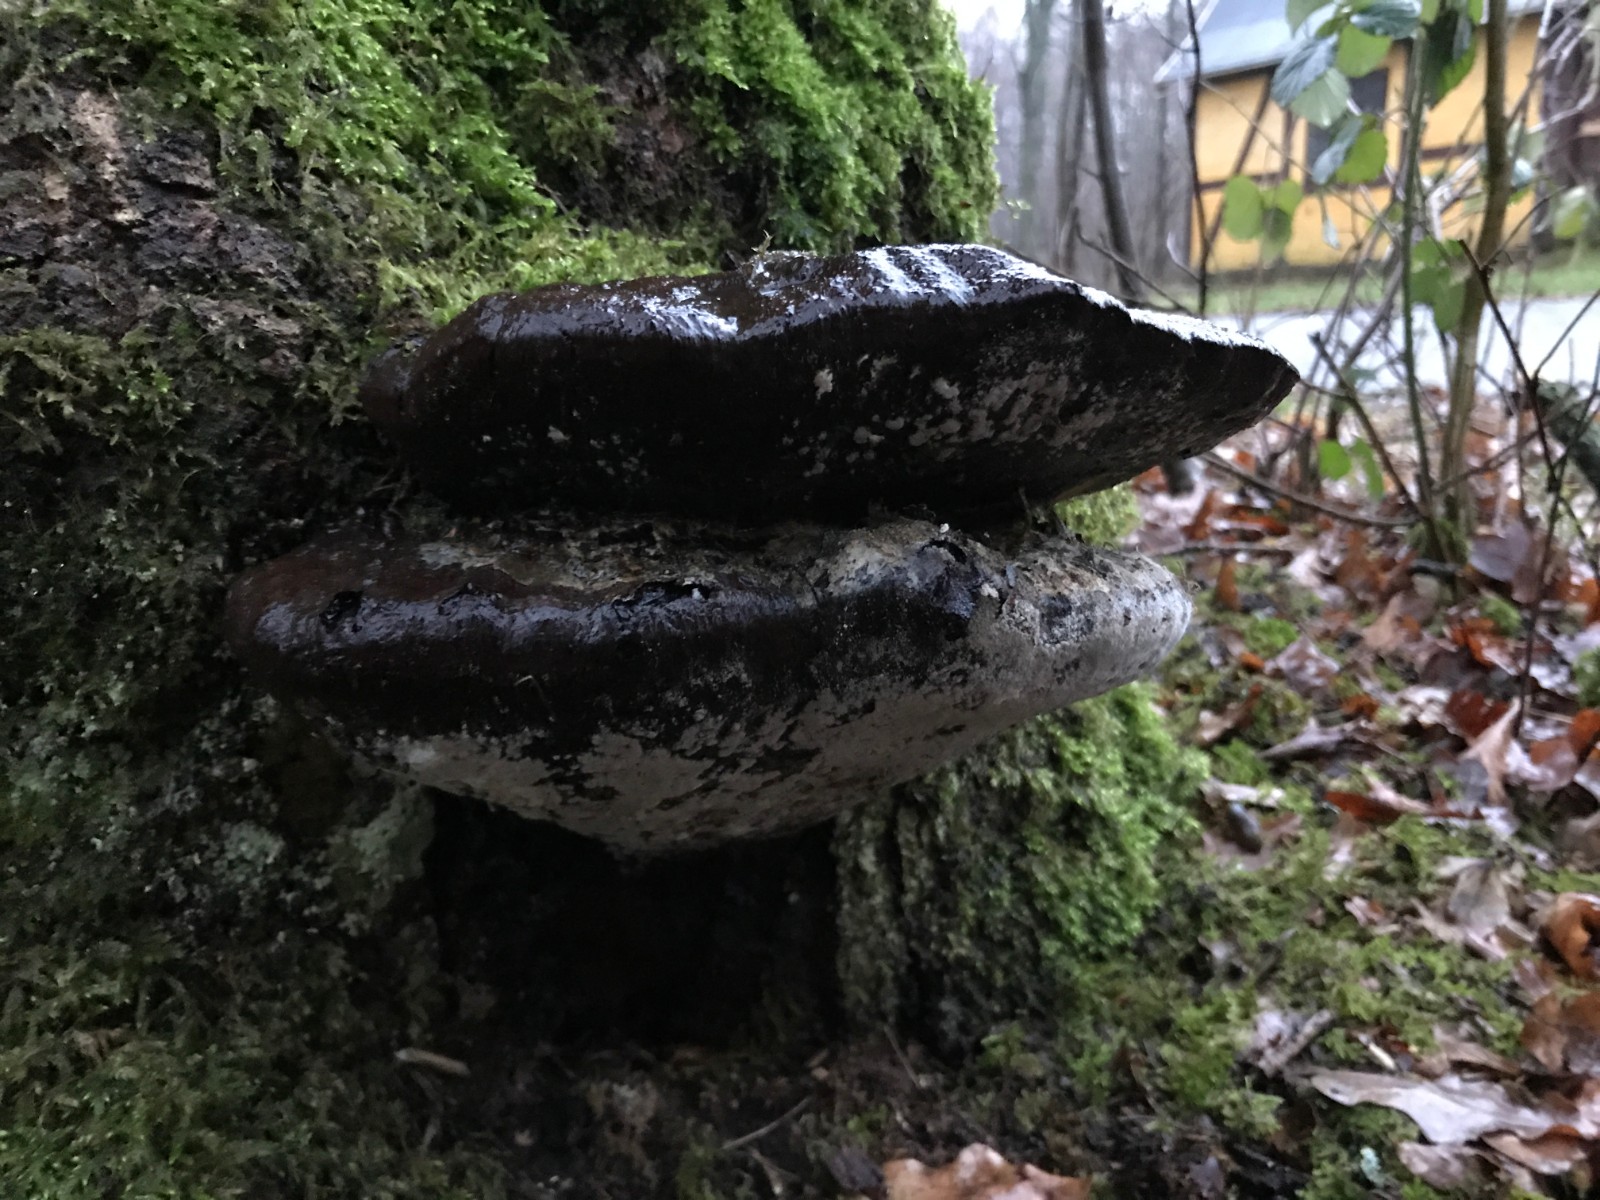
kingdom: Fungi
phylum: Basidiomycota
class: Agaricomycetes
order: Polyporales
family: Polyporaceae
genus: Ganoderma
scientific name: Ganoderma resinaceum
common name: gyldenbrun lakporesvamp
